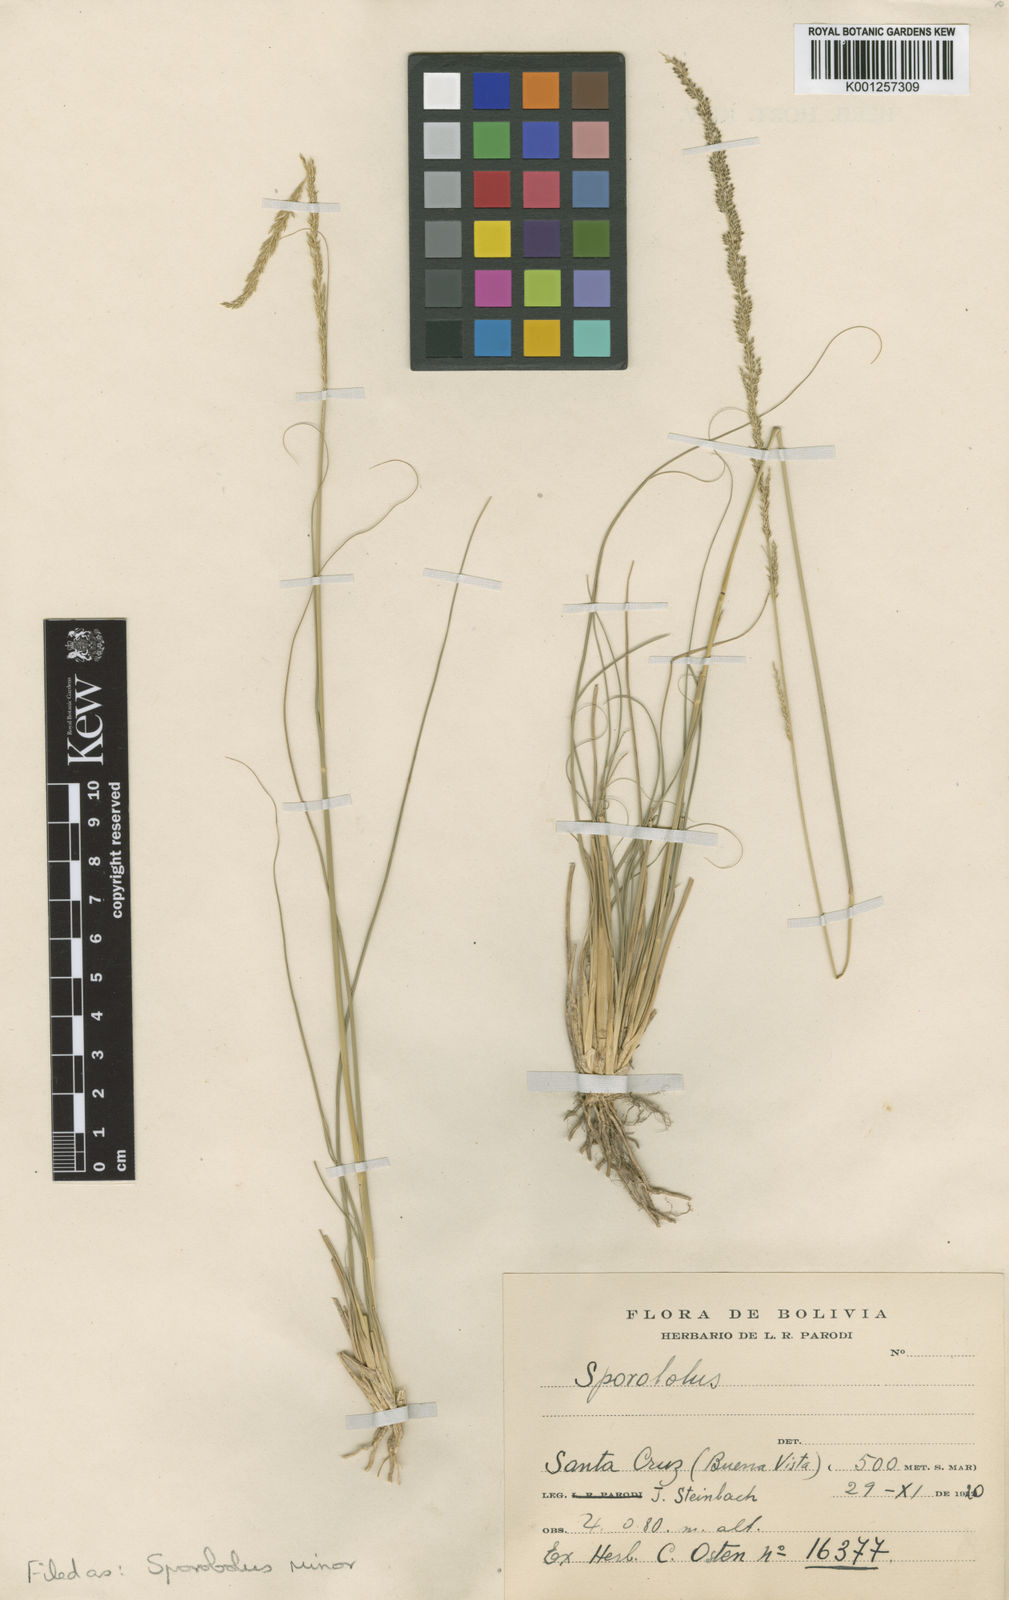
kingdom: Plantae
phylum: Tracheophyta
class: Liliopsida
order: Poales
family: Poaceae
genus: Sporobolus
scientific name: Sporobolus
